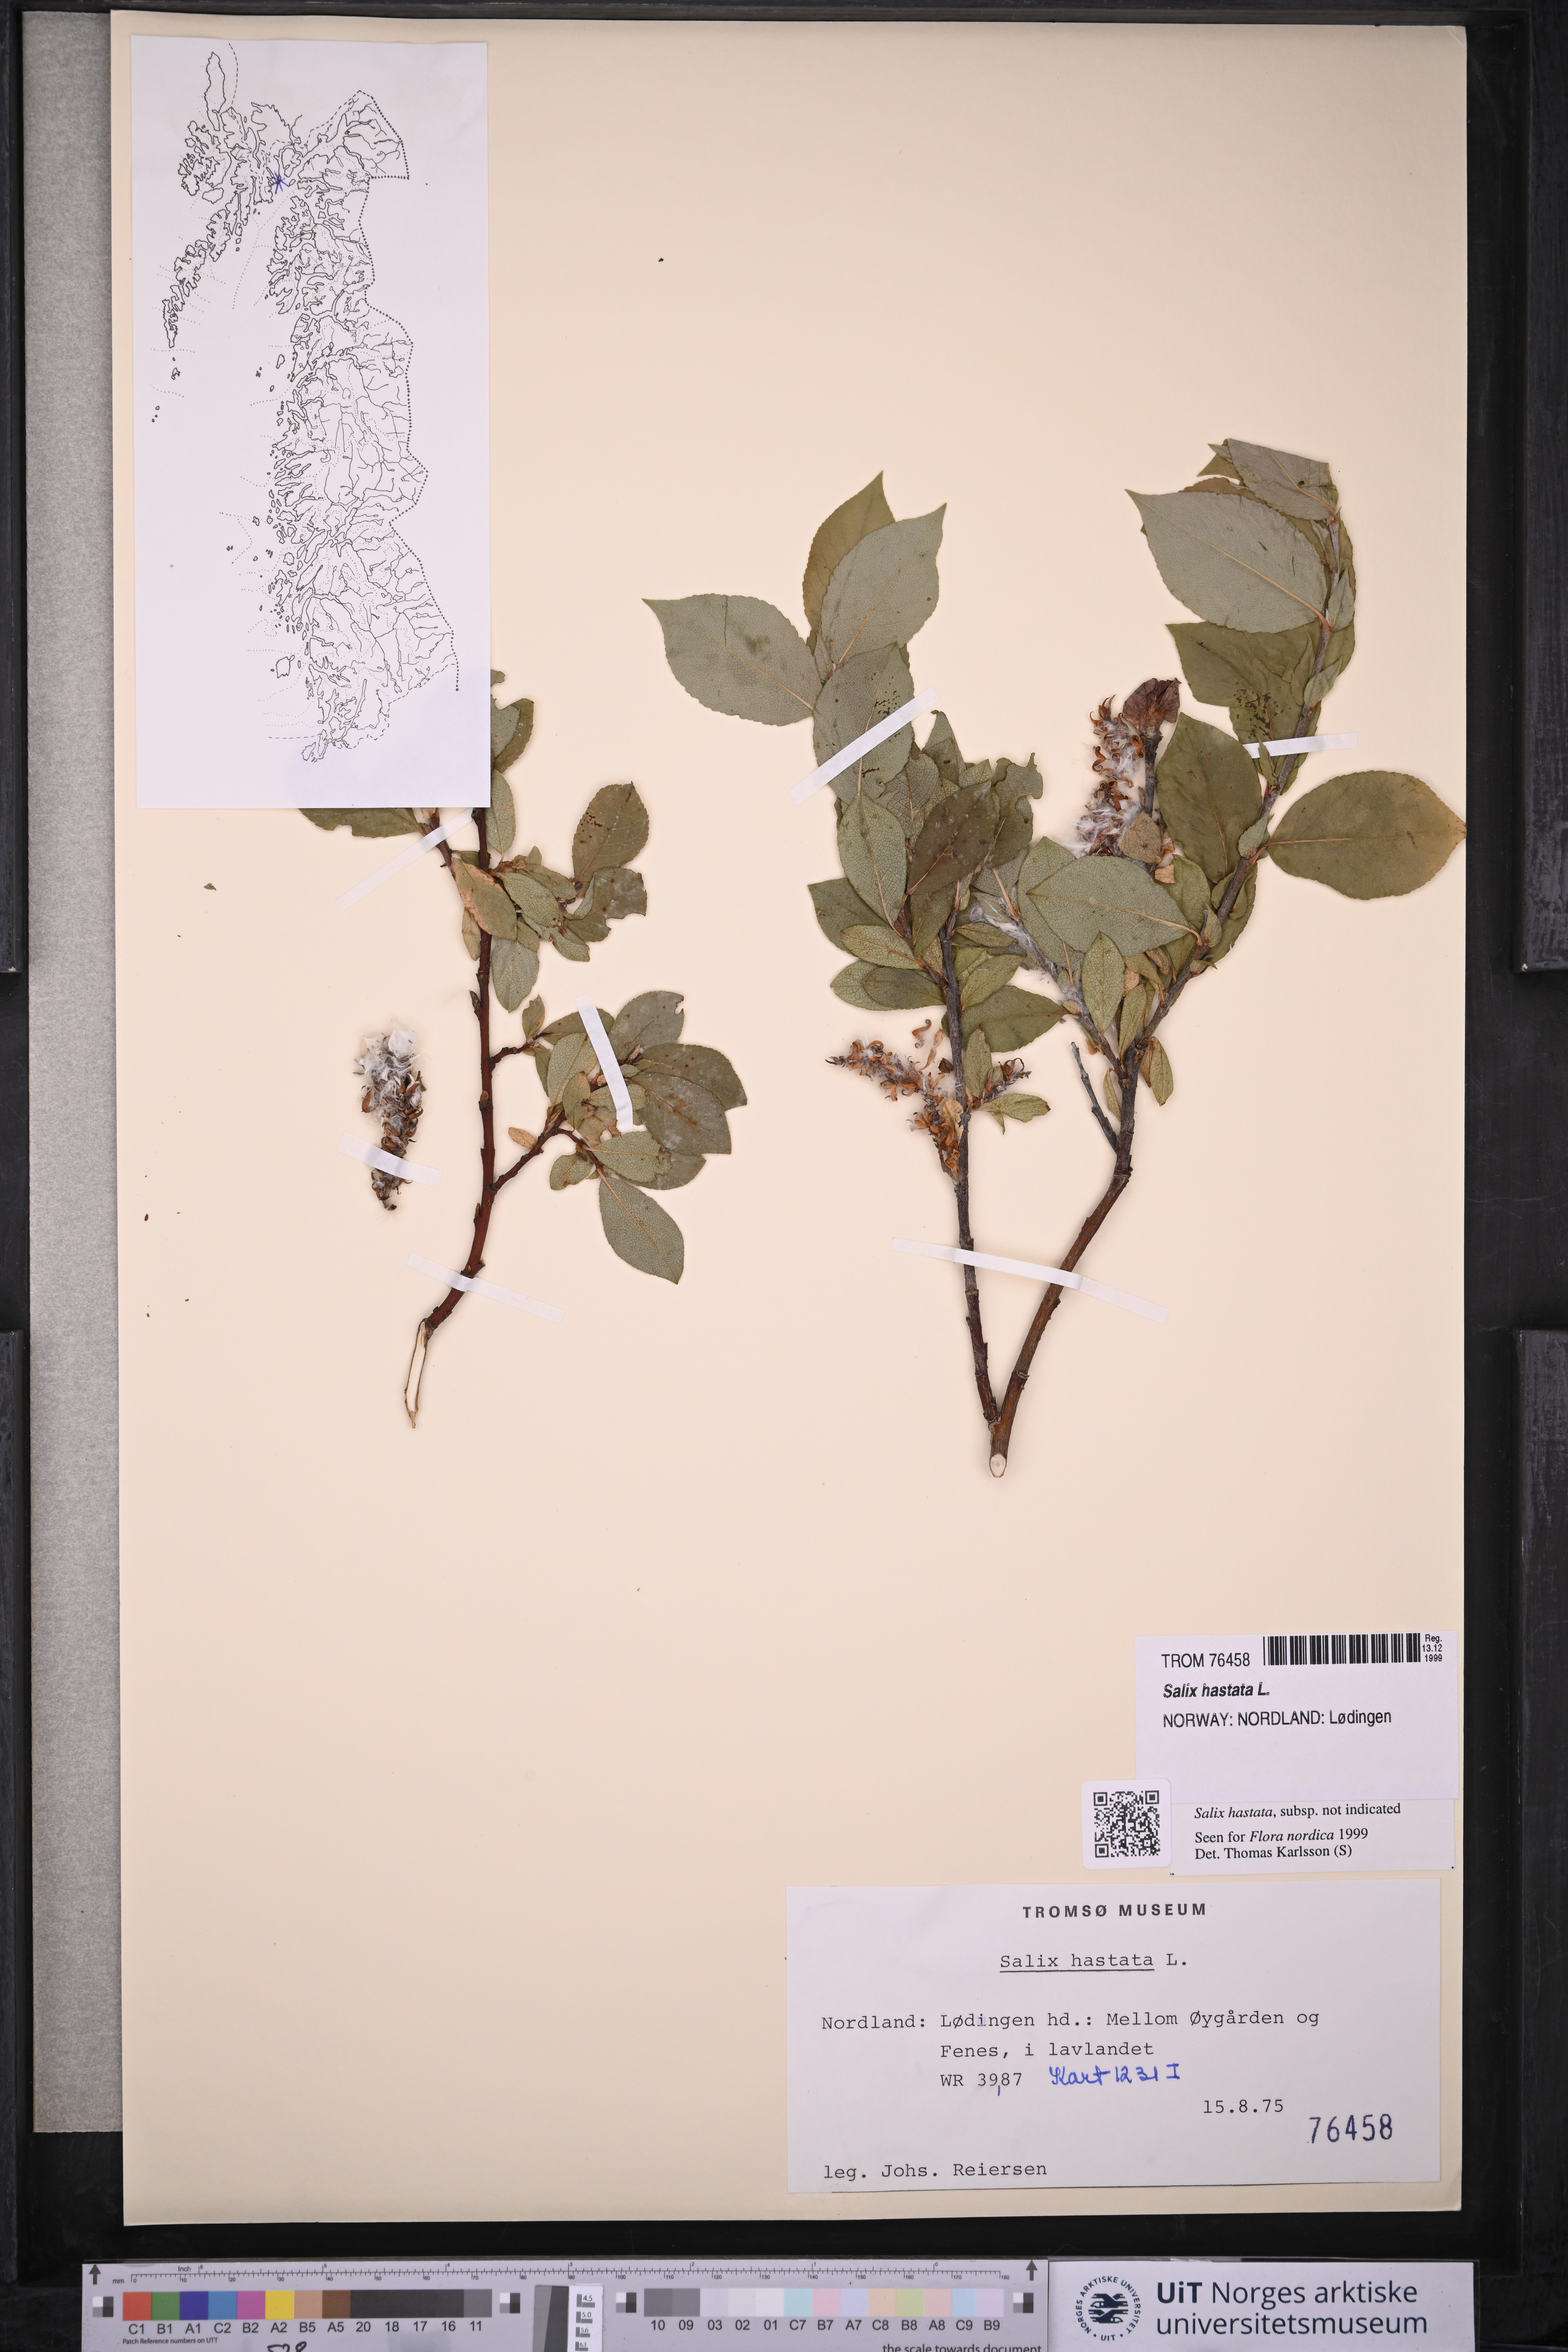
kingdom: Plantae
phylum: Tracheophyta
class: Magnoliopsida
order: Malpighiales
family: Salicaceae
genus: Salix
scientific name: Salix hastata
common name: Halberd willow
